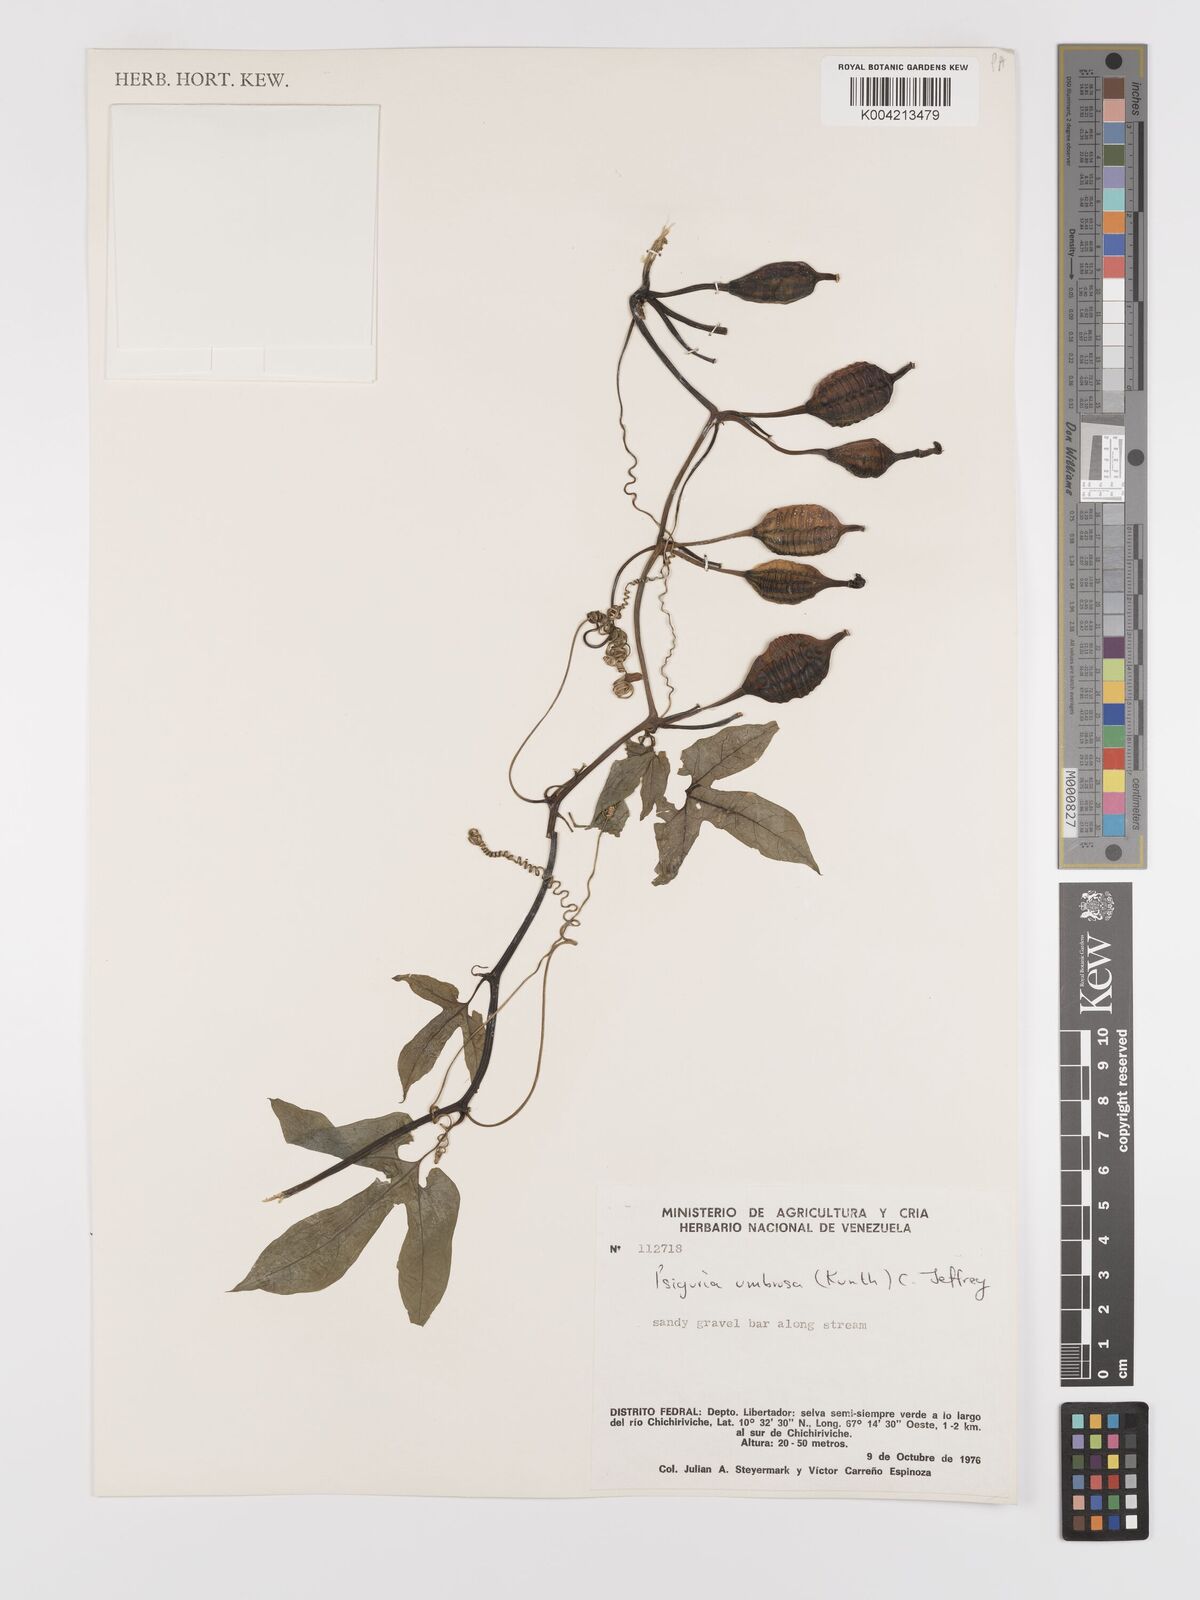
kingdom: Plantae
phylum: Tracheophyta
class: Magnoliopsida
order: Cucurbitales
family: Cucurbitaceae
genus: Psiguria
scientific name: Psiguria umbrosa
